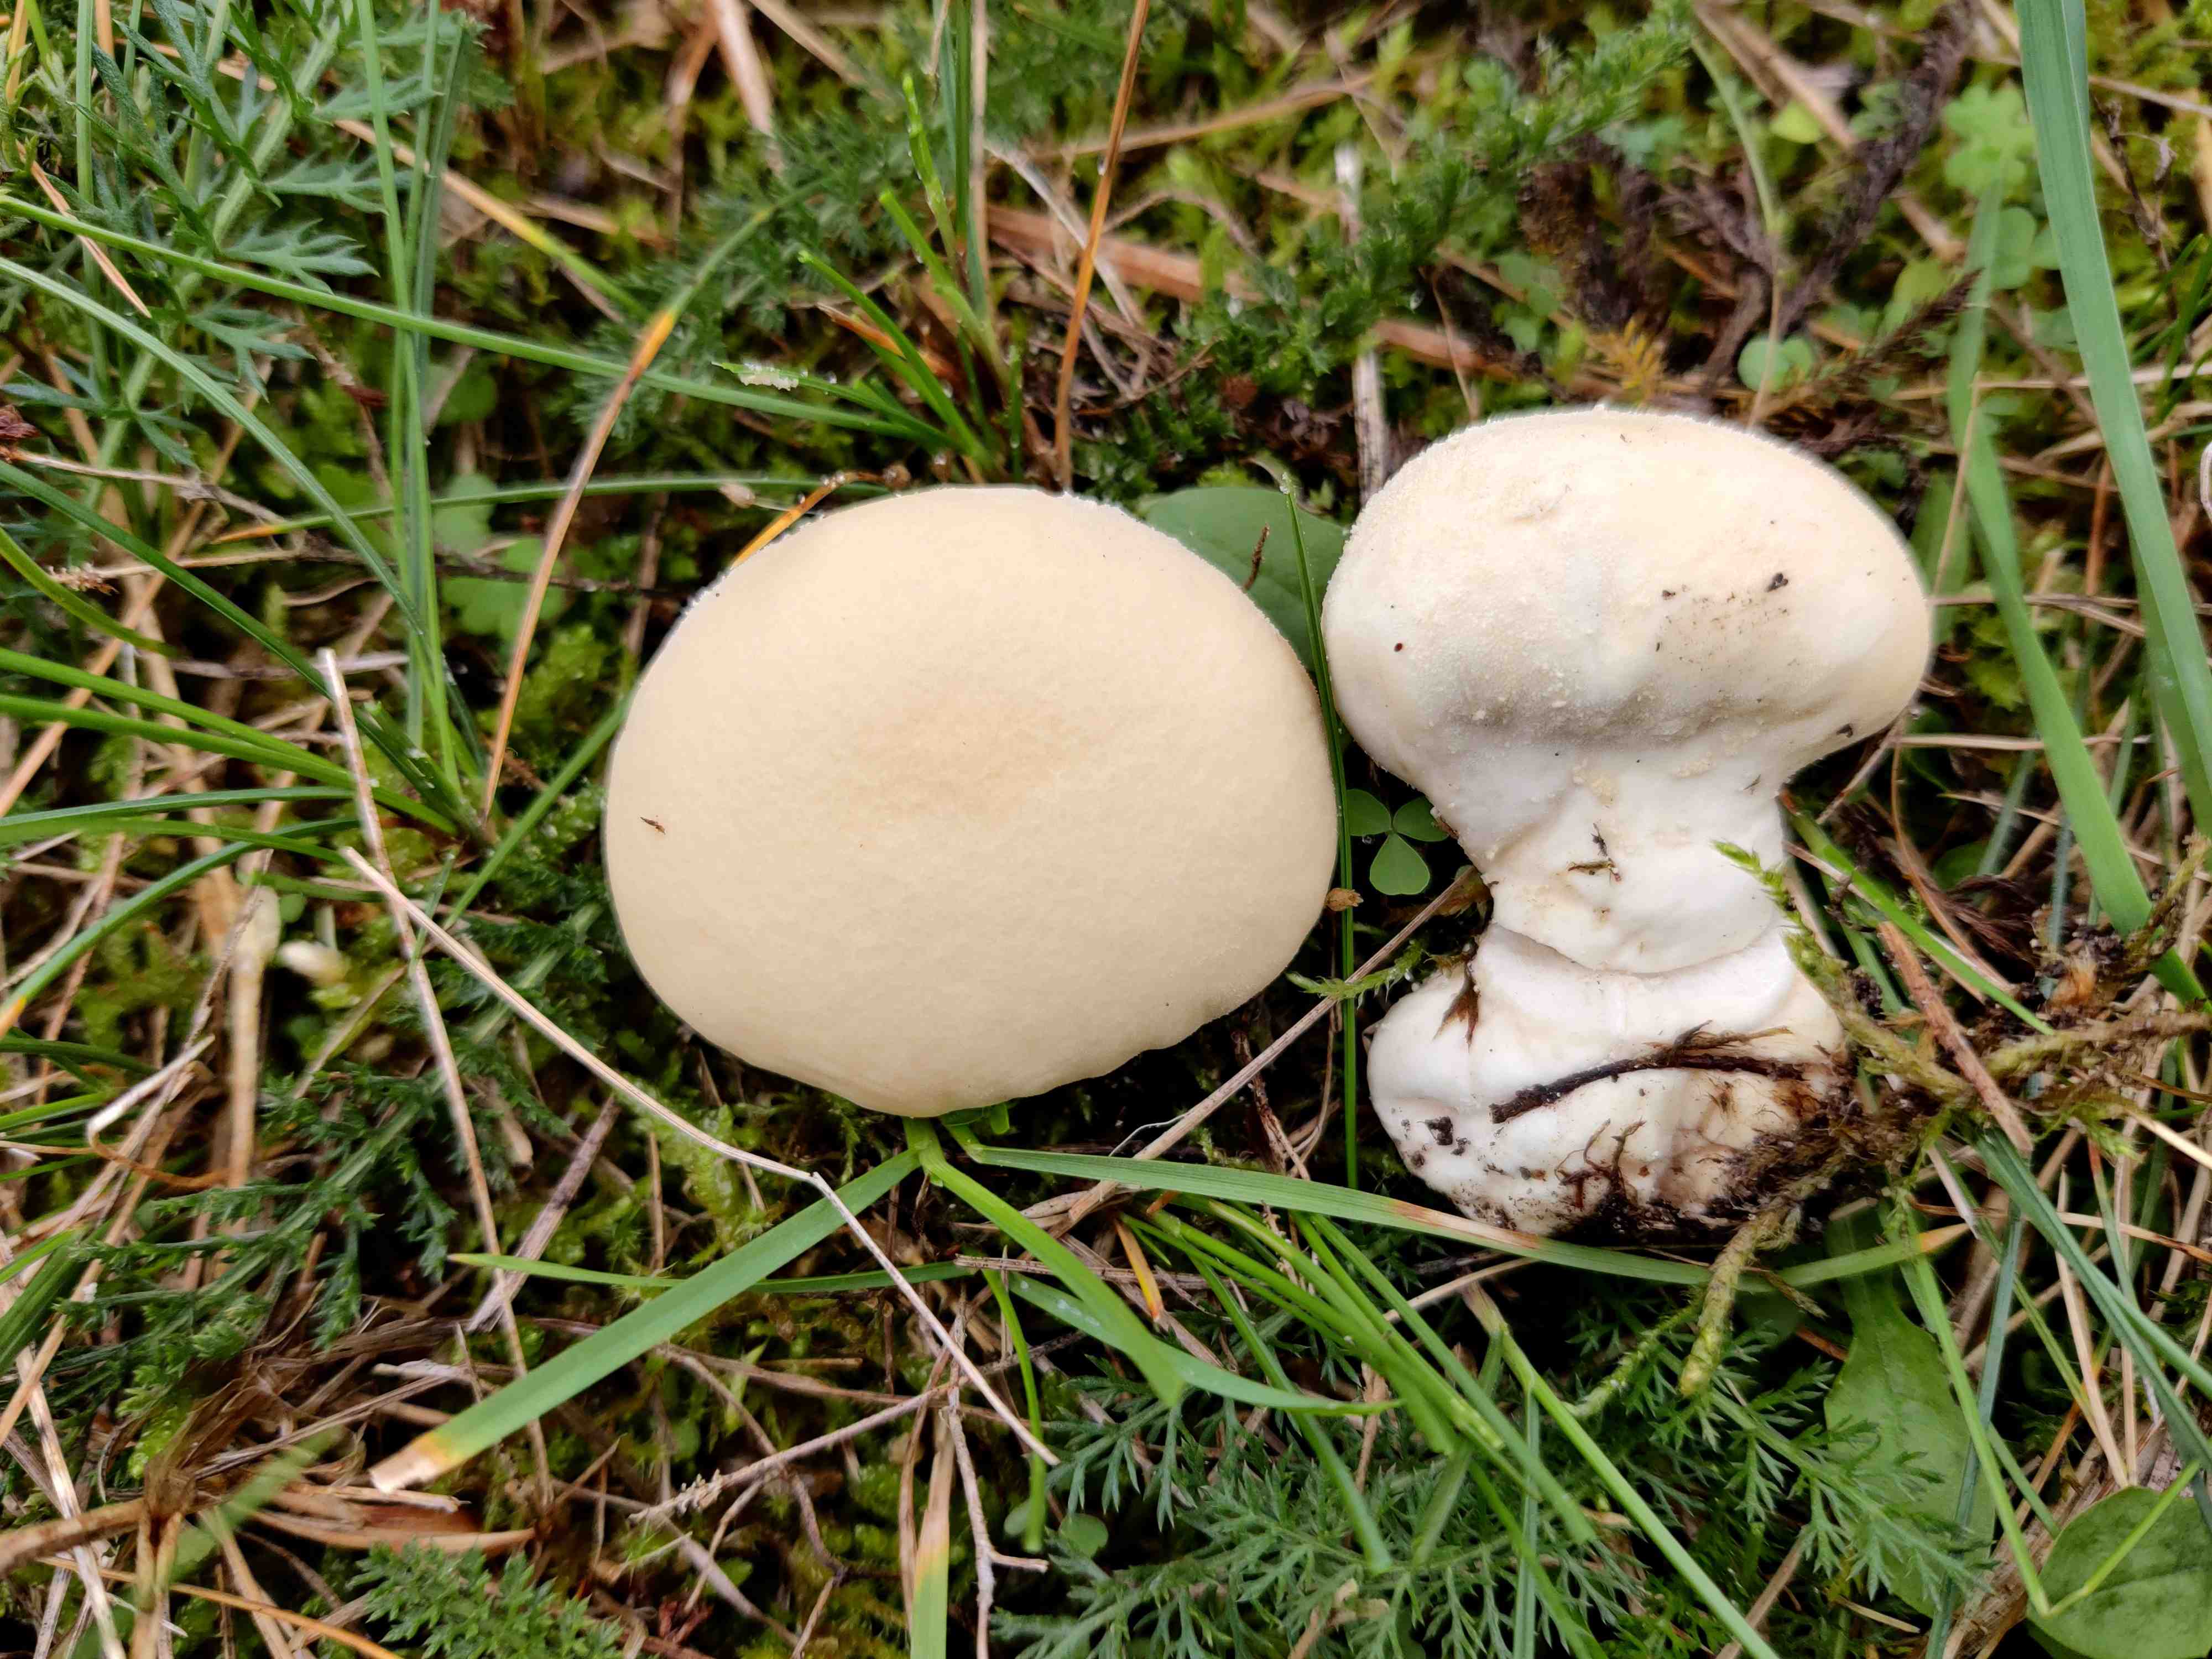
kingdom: Fungi
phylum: Basidiomycota
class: Agaricomycetes
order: Agaricales
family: Lycoperdaceae
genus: Lycoperdon
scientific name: Lycoperdon pratense
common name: flad støvbold
